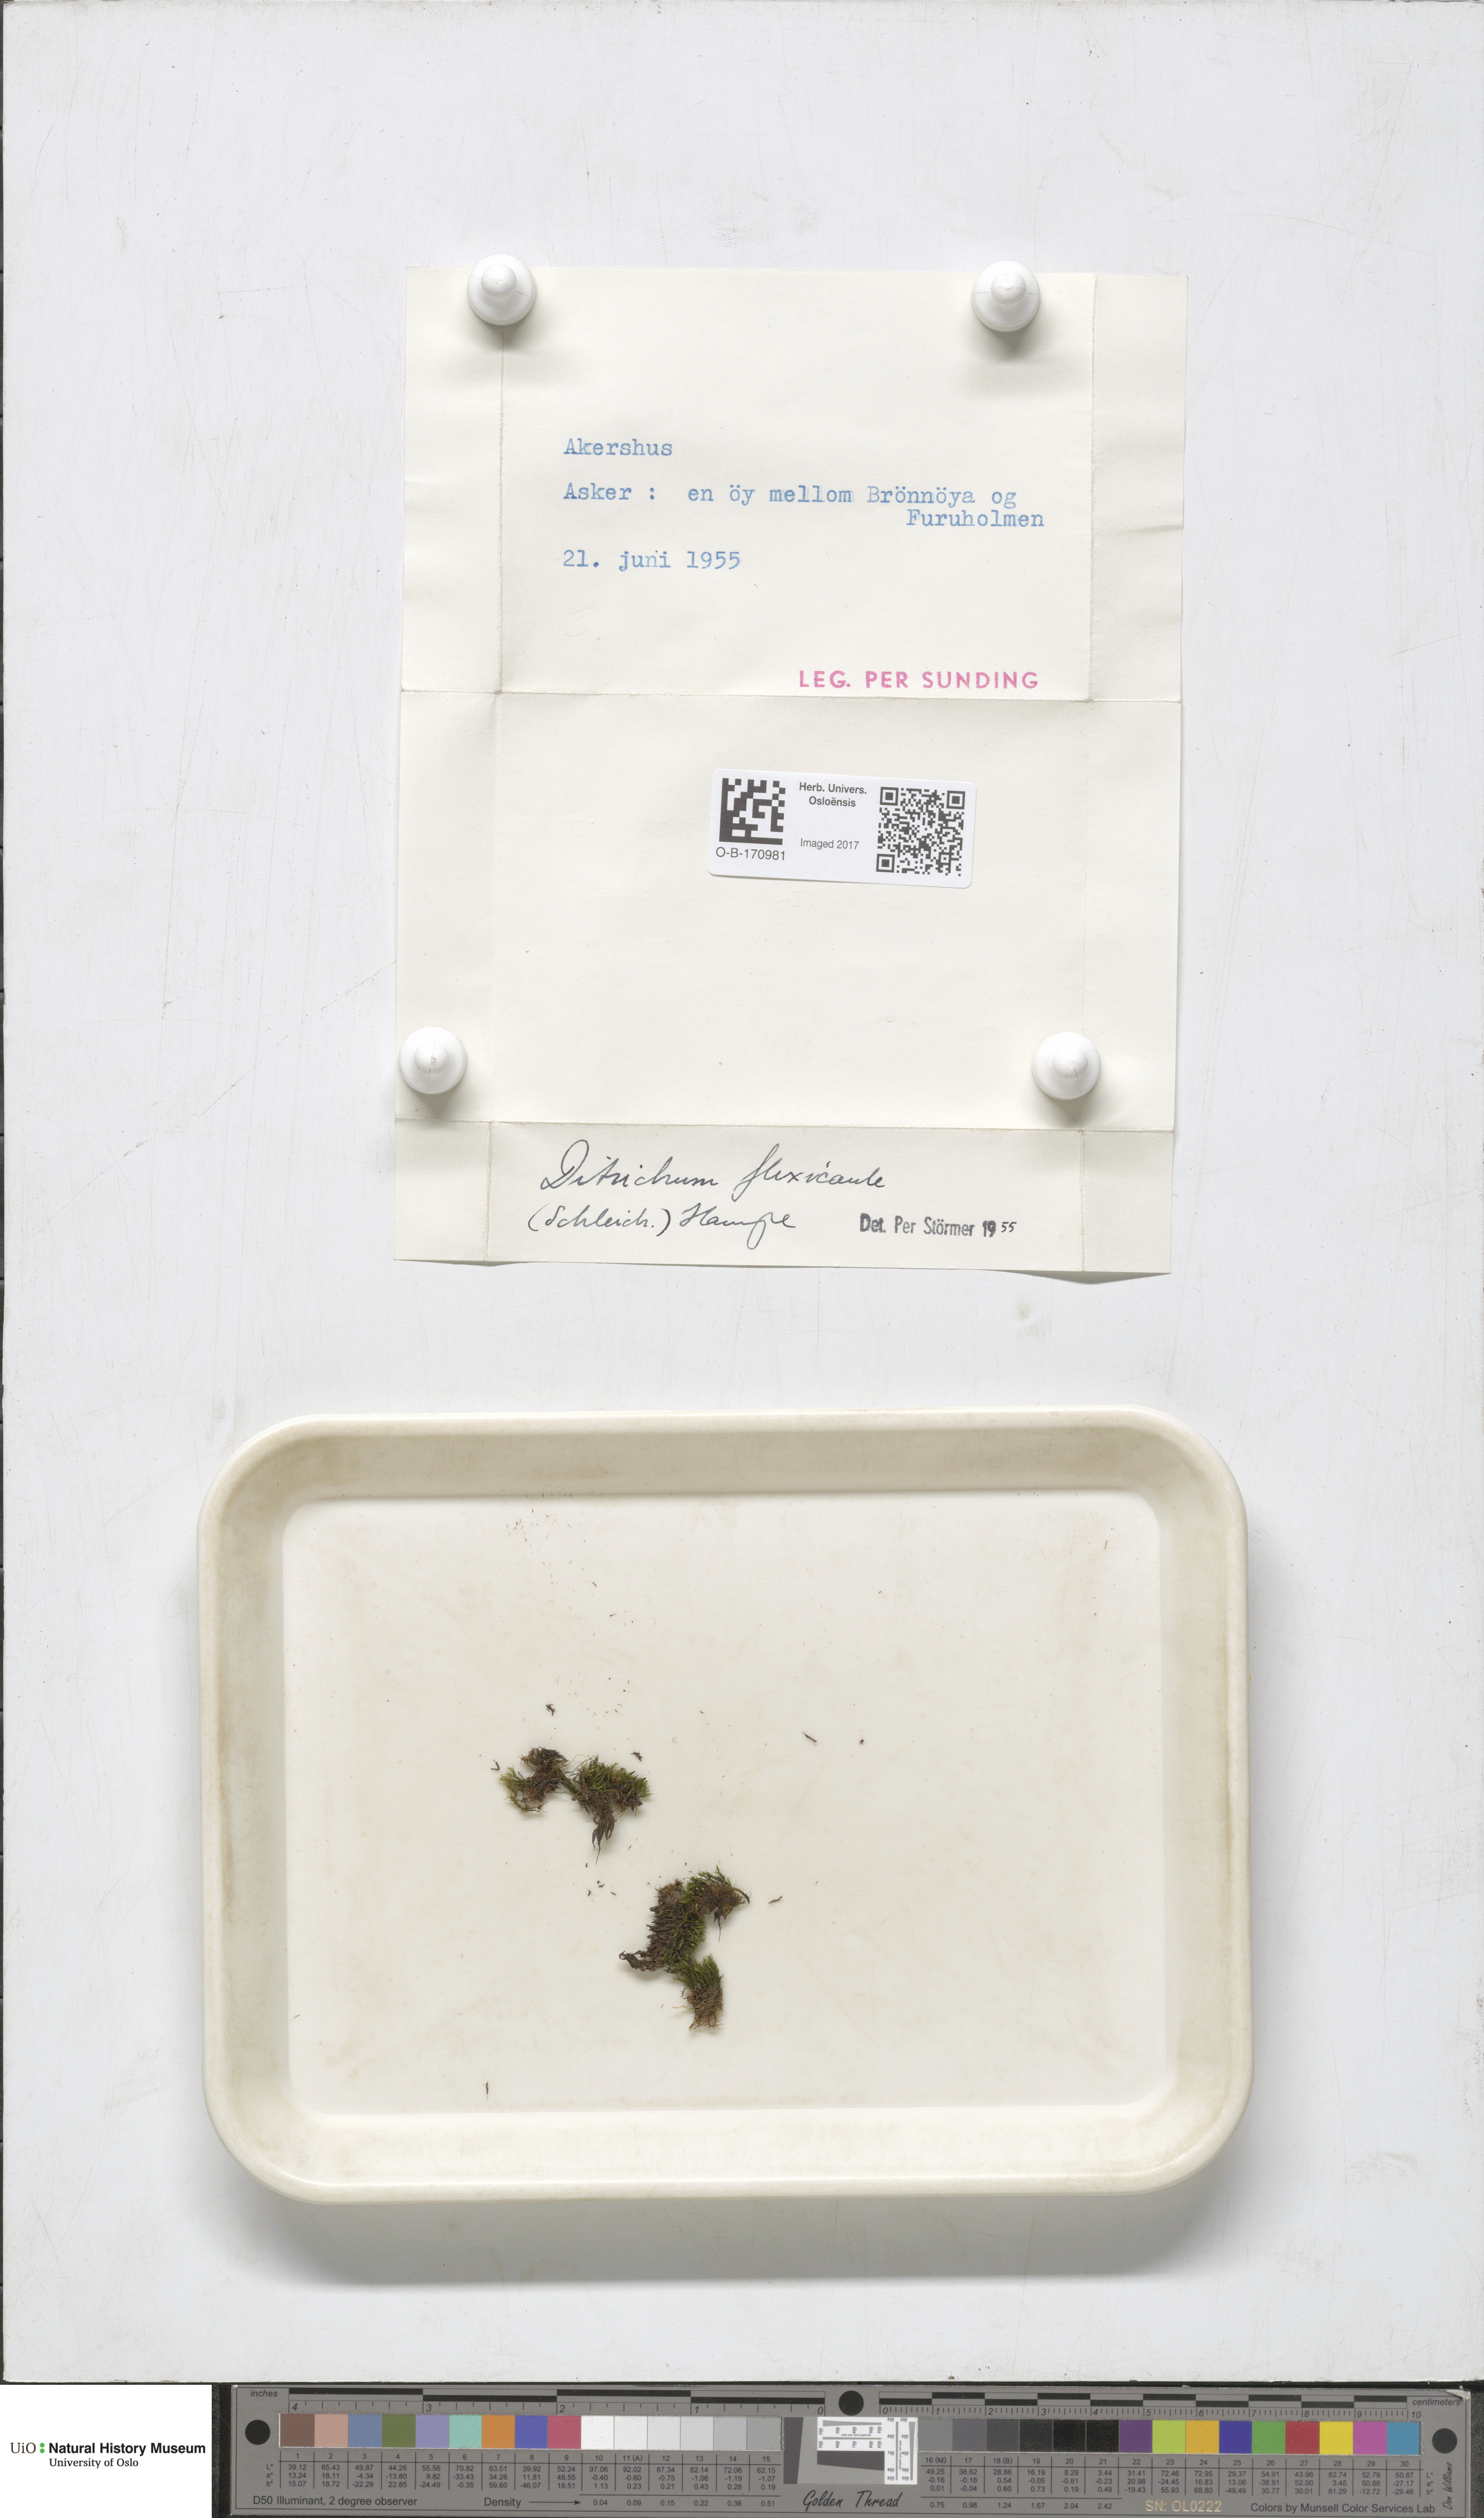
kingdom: Plantae
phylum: Bryophyta
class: Bryopsida
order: Scouleriales
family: Flexitrichaceae
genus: Flexitrichum
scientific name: Flexitrichum flexicaule
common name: Bendy ditrichum
